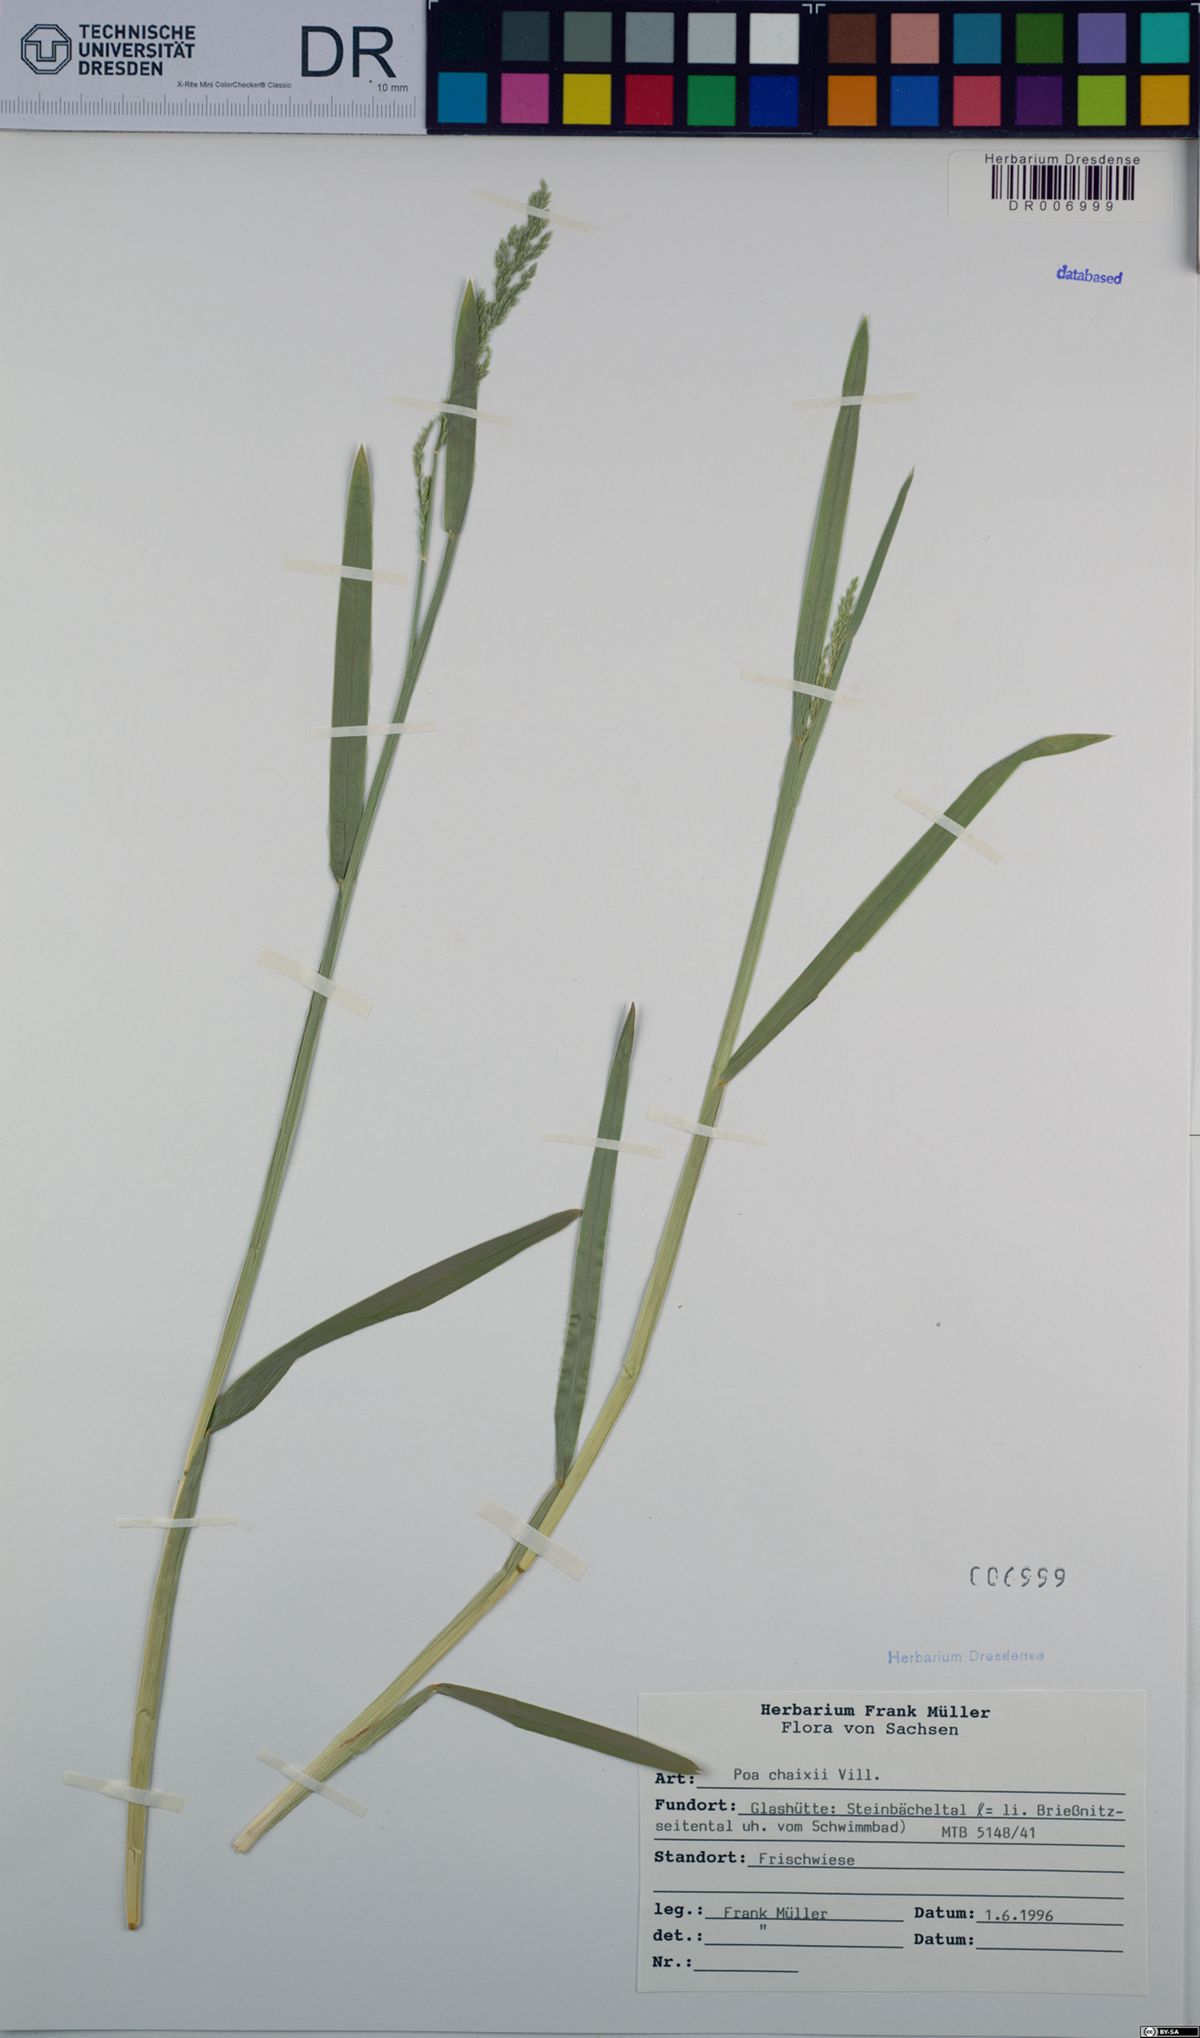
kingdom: Plantae
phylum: Tracheophyta
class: Liliopsida
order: Poales
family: Poaceae
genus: Poa
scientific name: Poa chaixii
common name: Broad-leaved meadow-grass
